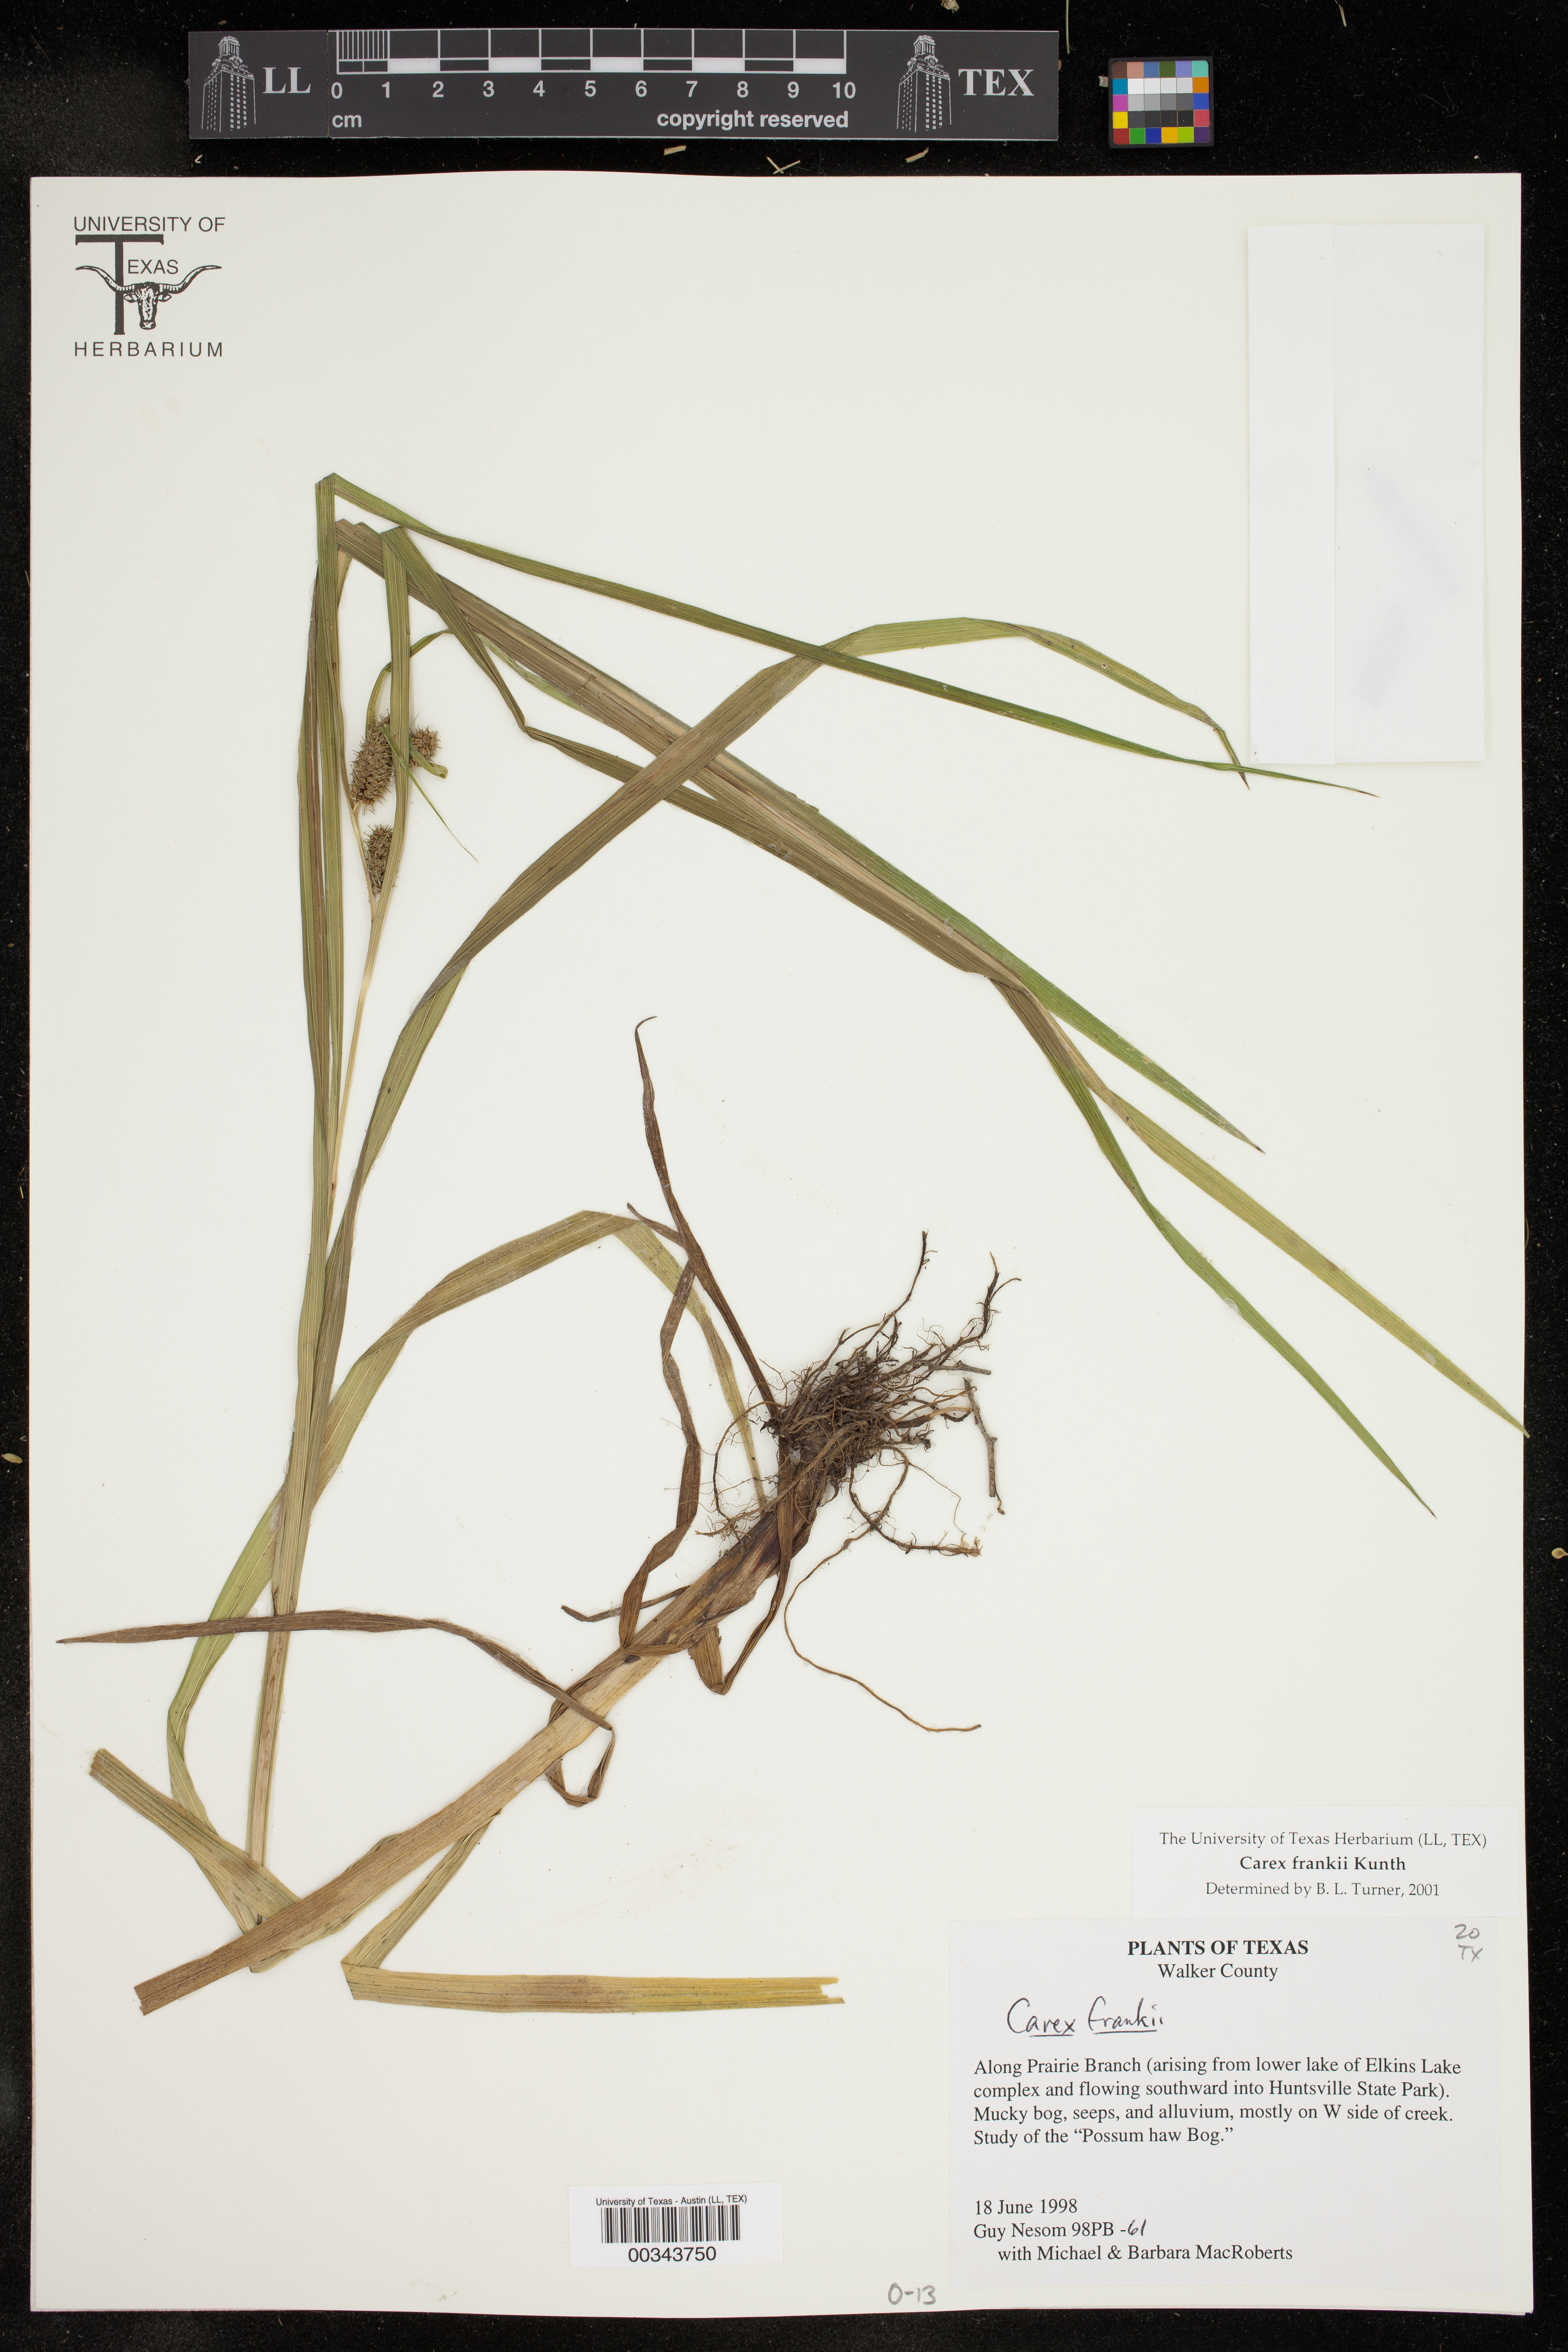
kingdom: Plantae
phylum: Tracheophyta
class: Liliopsida
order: Poales
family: Cyperaceae
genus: Carex
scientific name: Carex frankii
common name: Frank's sedge
